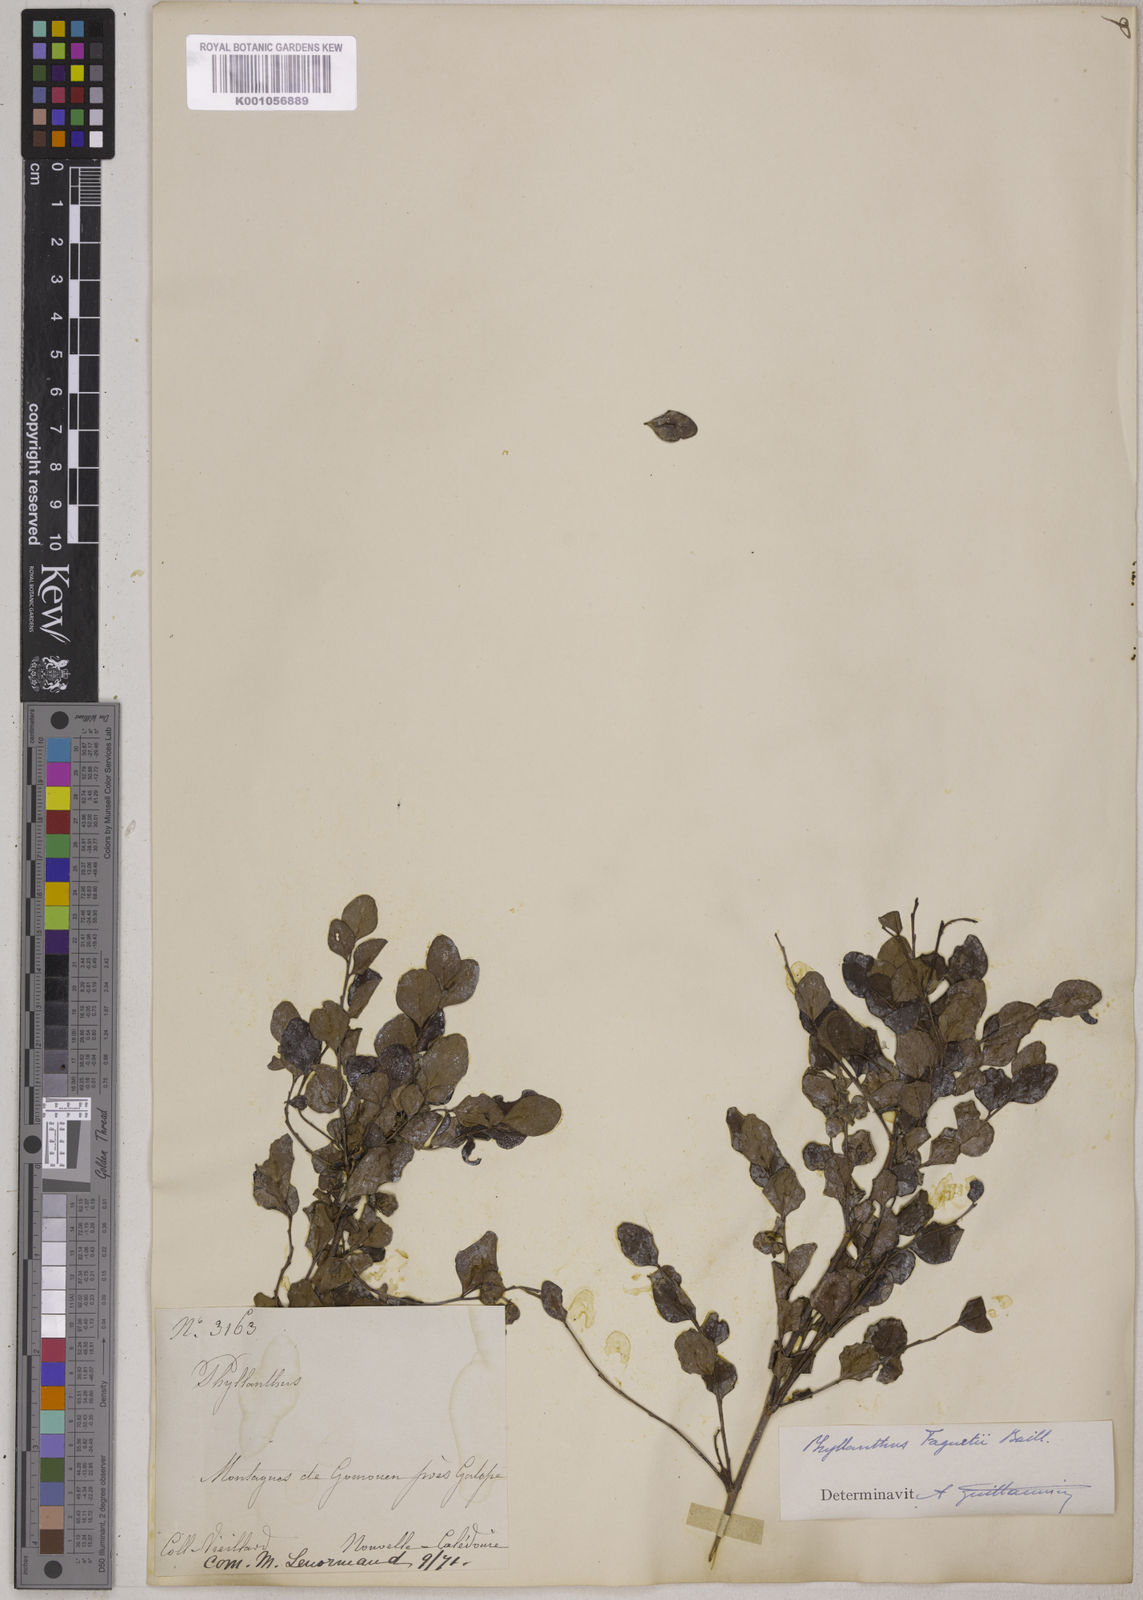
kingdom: Plantae
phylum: Tracheophyta
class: Magnoliopsida
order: Malpighiales
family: Phyllanthaceae
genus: Phyllanthus
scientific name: Phyllanthus faguetii
